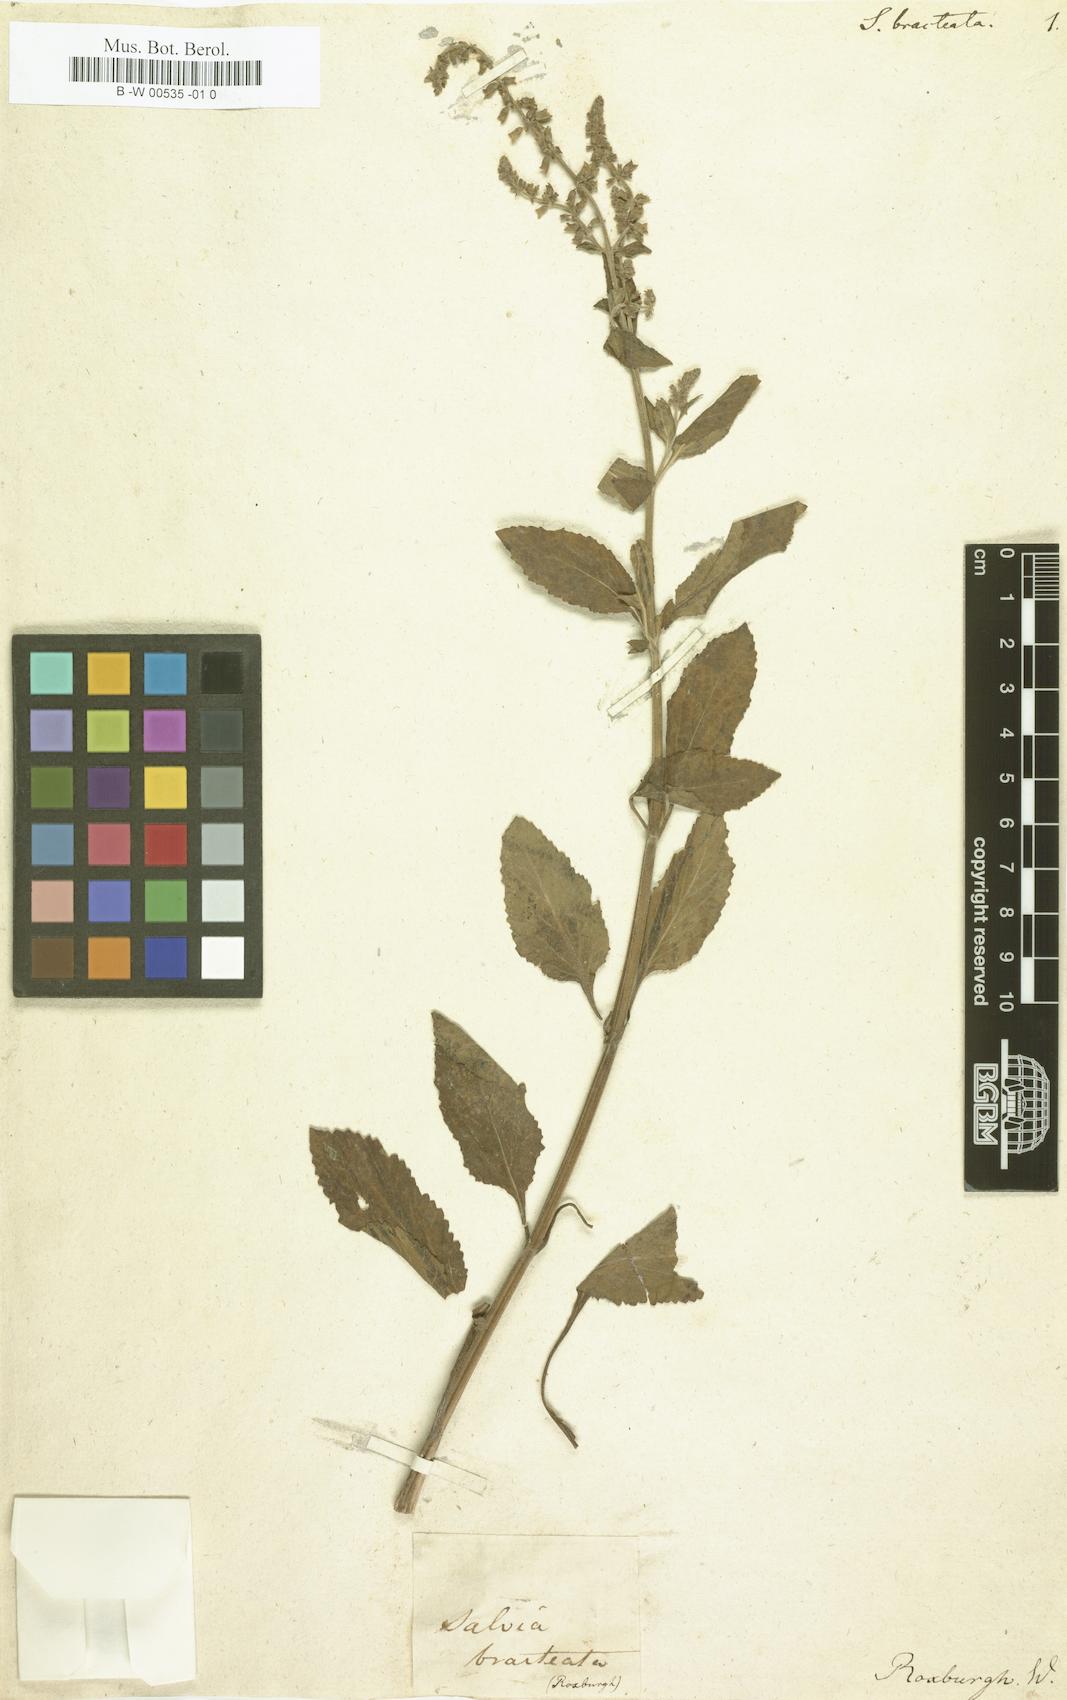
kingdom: Plantae
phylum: Tracheophyta
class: Magnoliopsida
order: Lamiales
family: Lamiaceae
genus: Salvia
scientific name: Salvia bracteata
